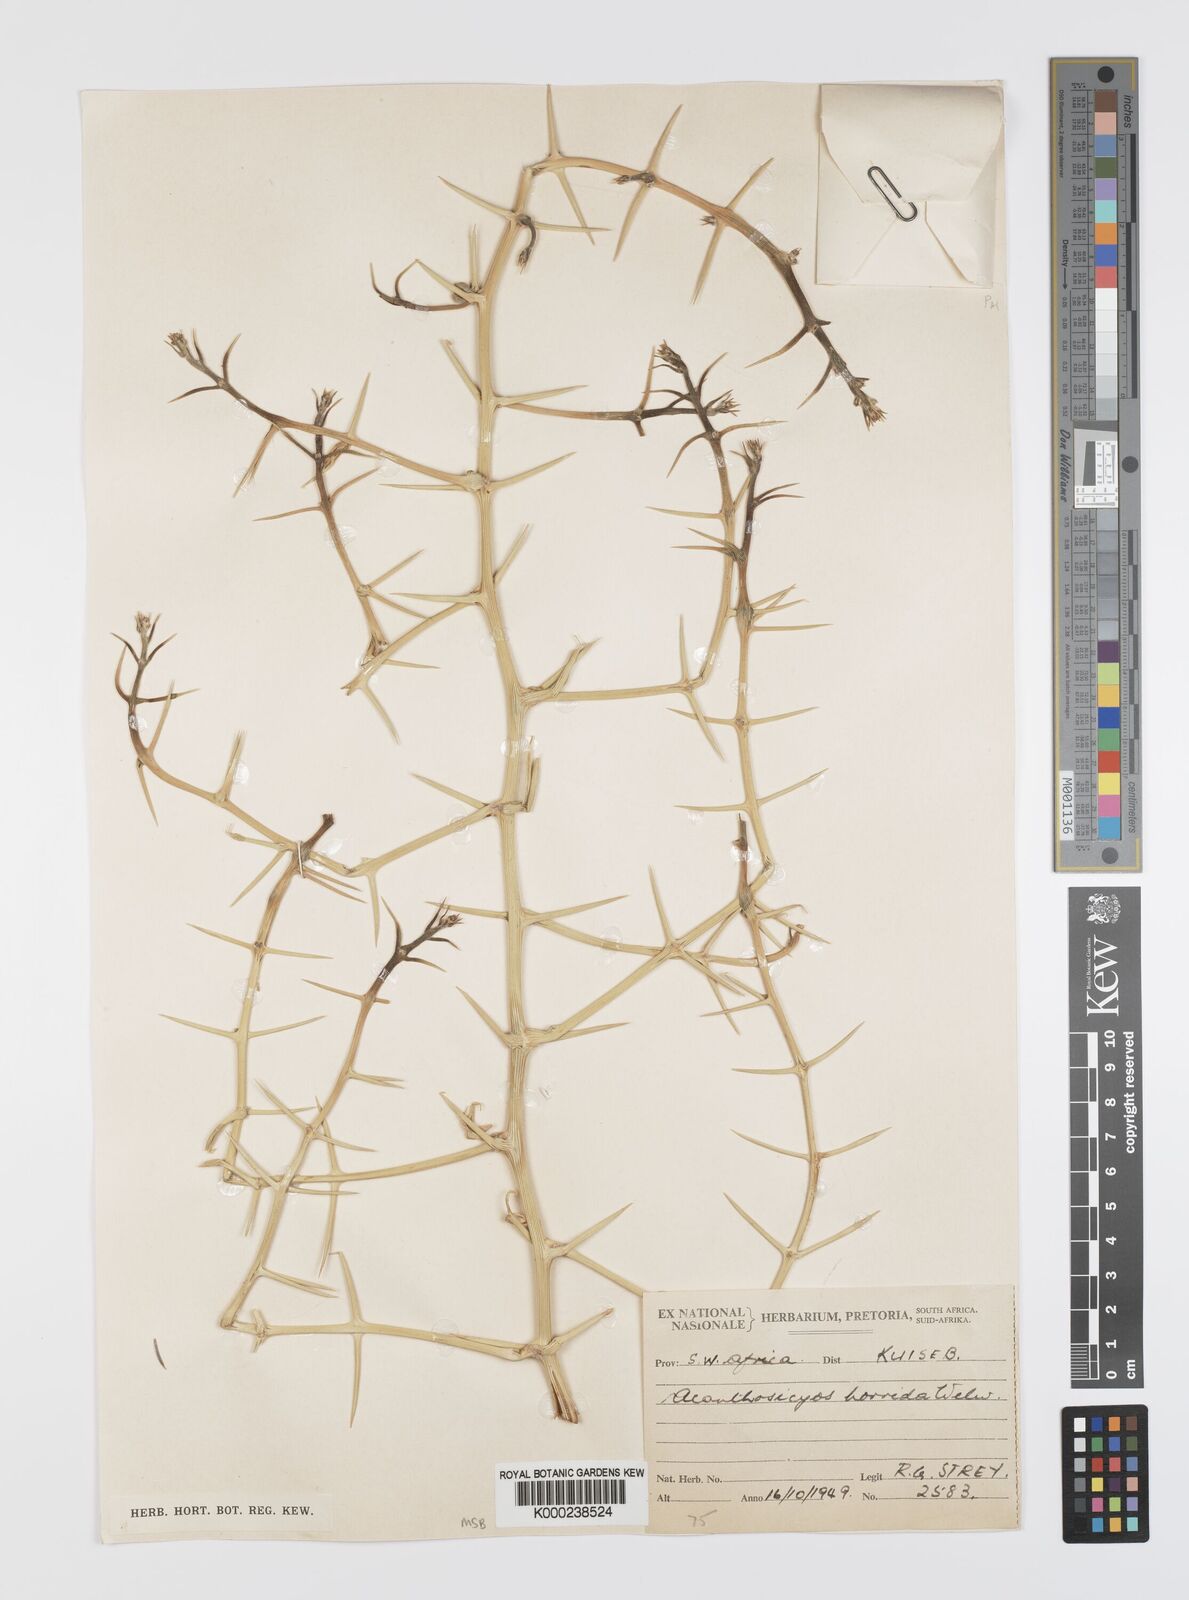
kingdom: Plantae
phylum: Tracheophyta
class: Magnoliopsida
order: Cucurbitales
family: Cucurbitaceae
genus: Acanthosicyos
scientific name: Acanthosicyos horridus
